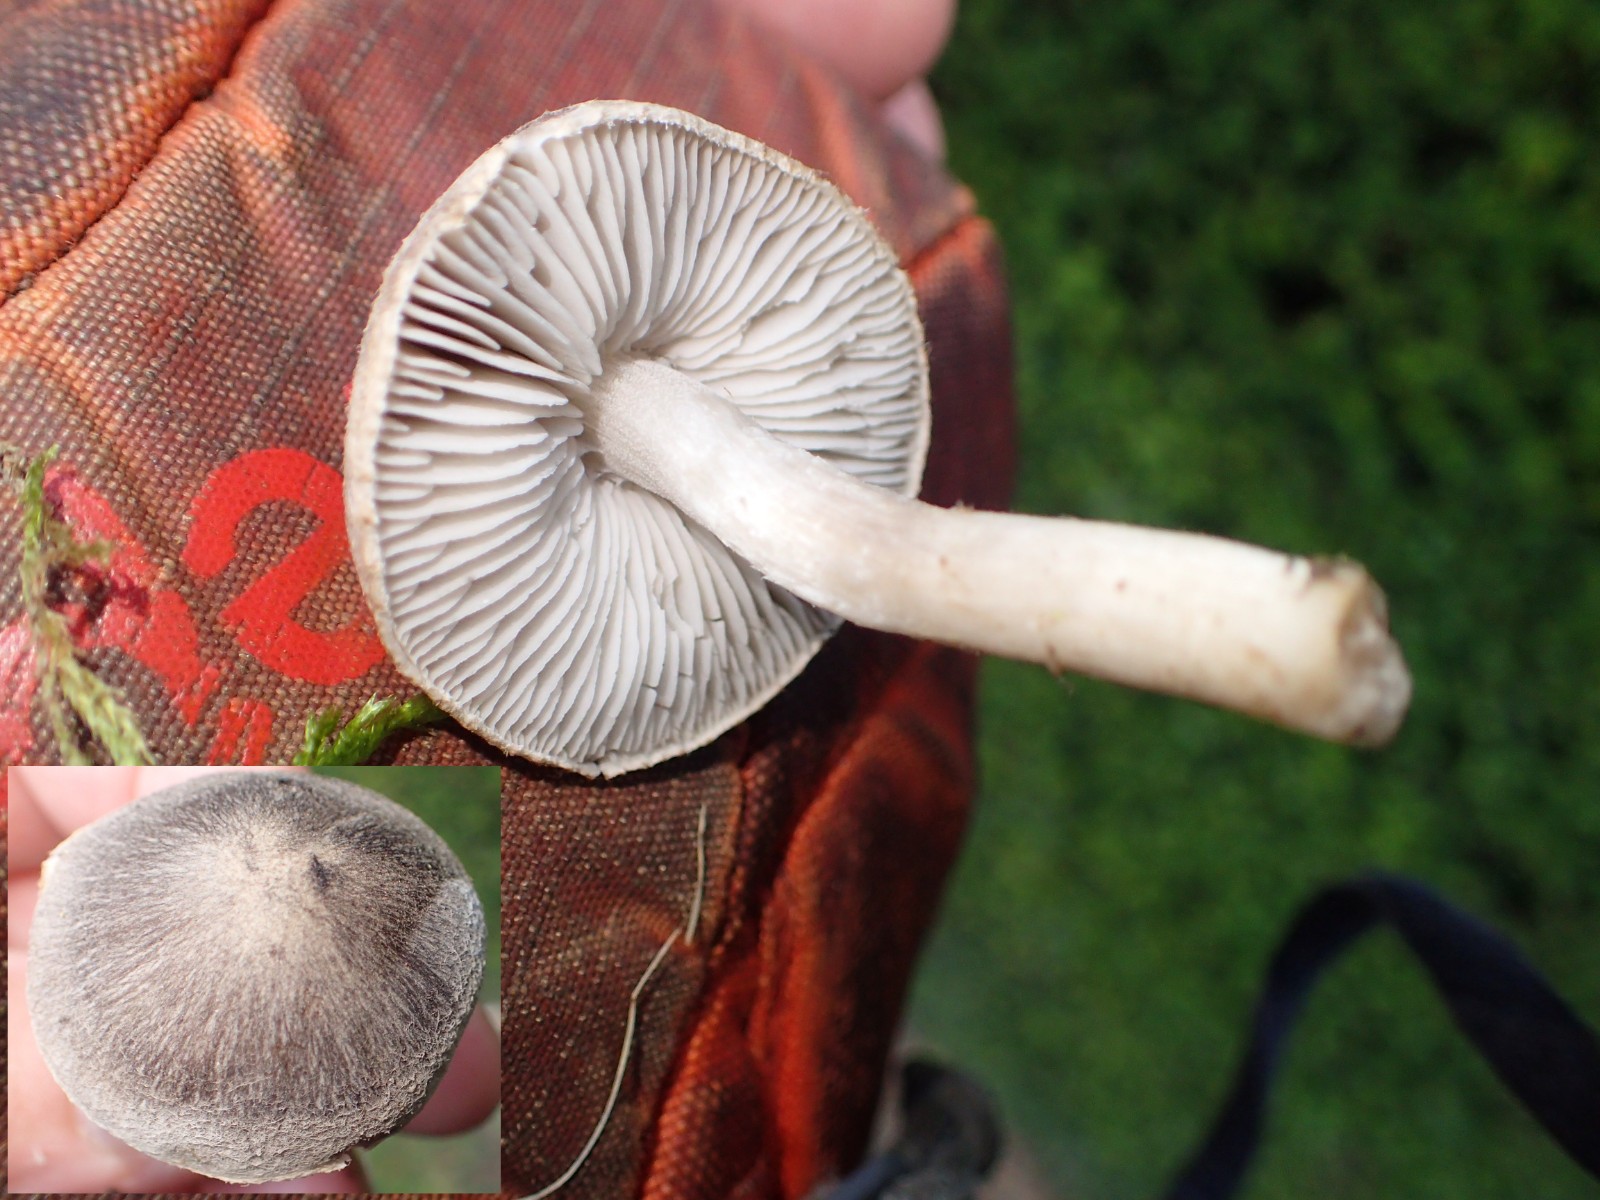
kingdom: Fungi
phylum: Basidiomycota
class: Agaricomycetes
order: Agaricales
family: Tricholomataceae
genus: Tricholoma
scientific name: Tricholoma
